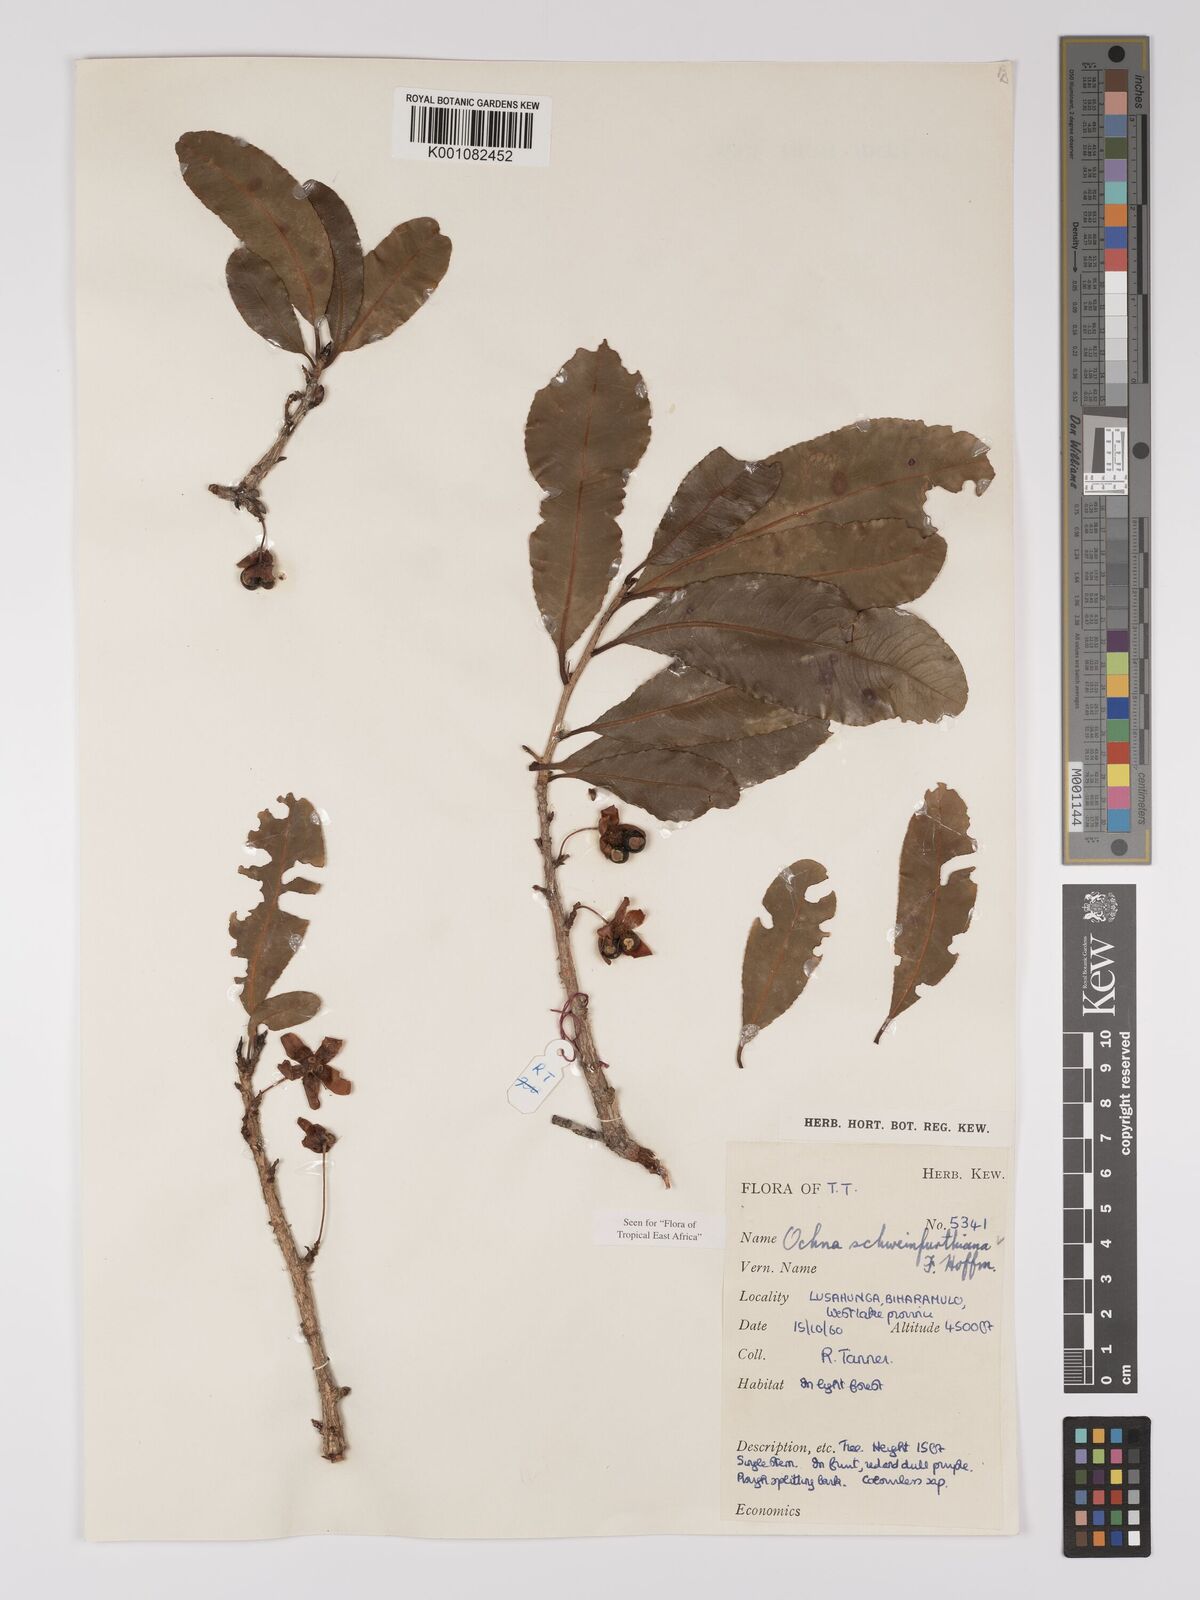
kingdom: Plantae
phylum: Tracheophyta
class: Magnoliopsida
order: Malpighiales
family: Ochnaceae
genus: Ochna
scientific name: Ochna schweinfurthiana
